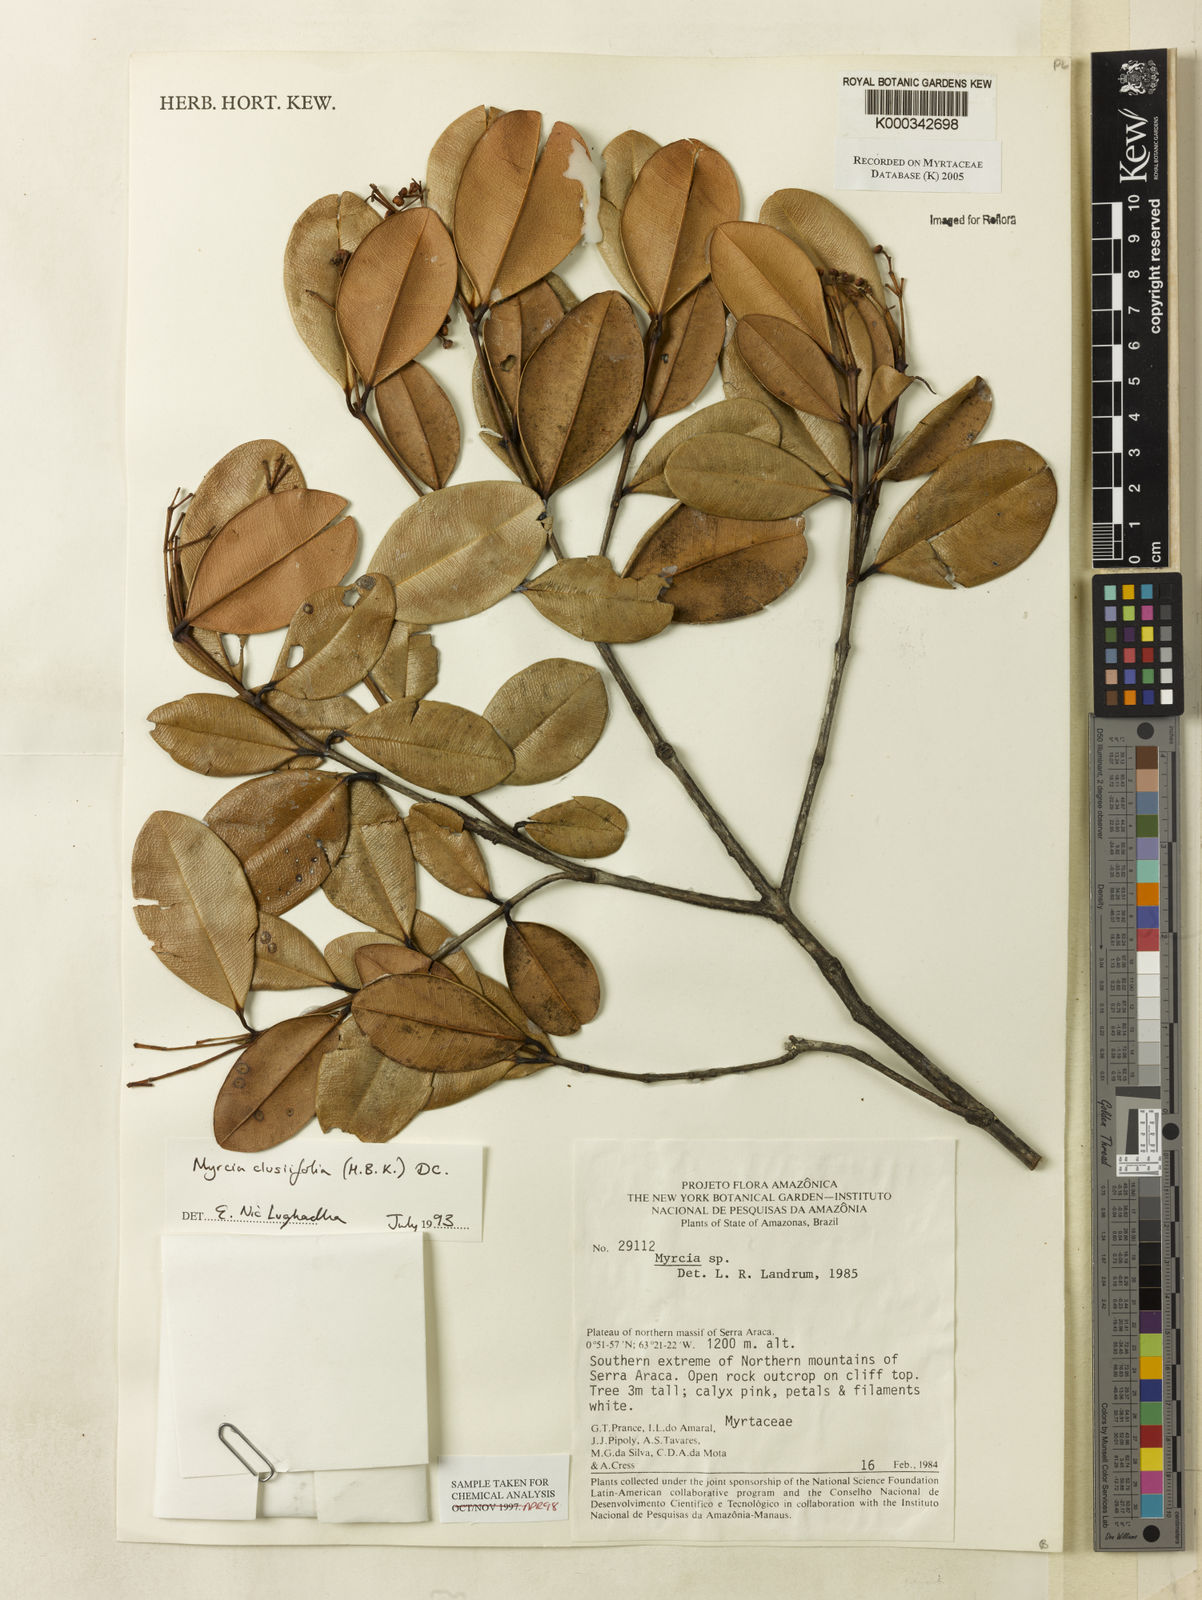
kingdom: Plantae
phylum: Tracheophyta
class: Magnoliopsida
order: Myrtales
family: Myrtaceae
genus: Myrcia
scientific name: Myrcia clusiifolia
